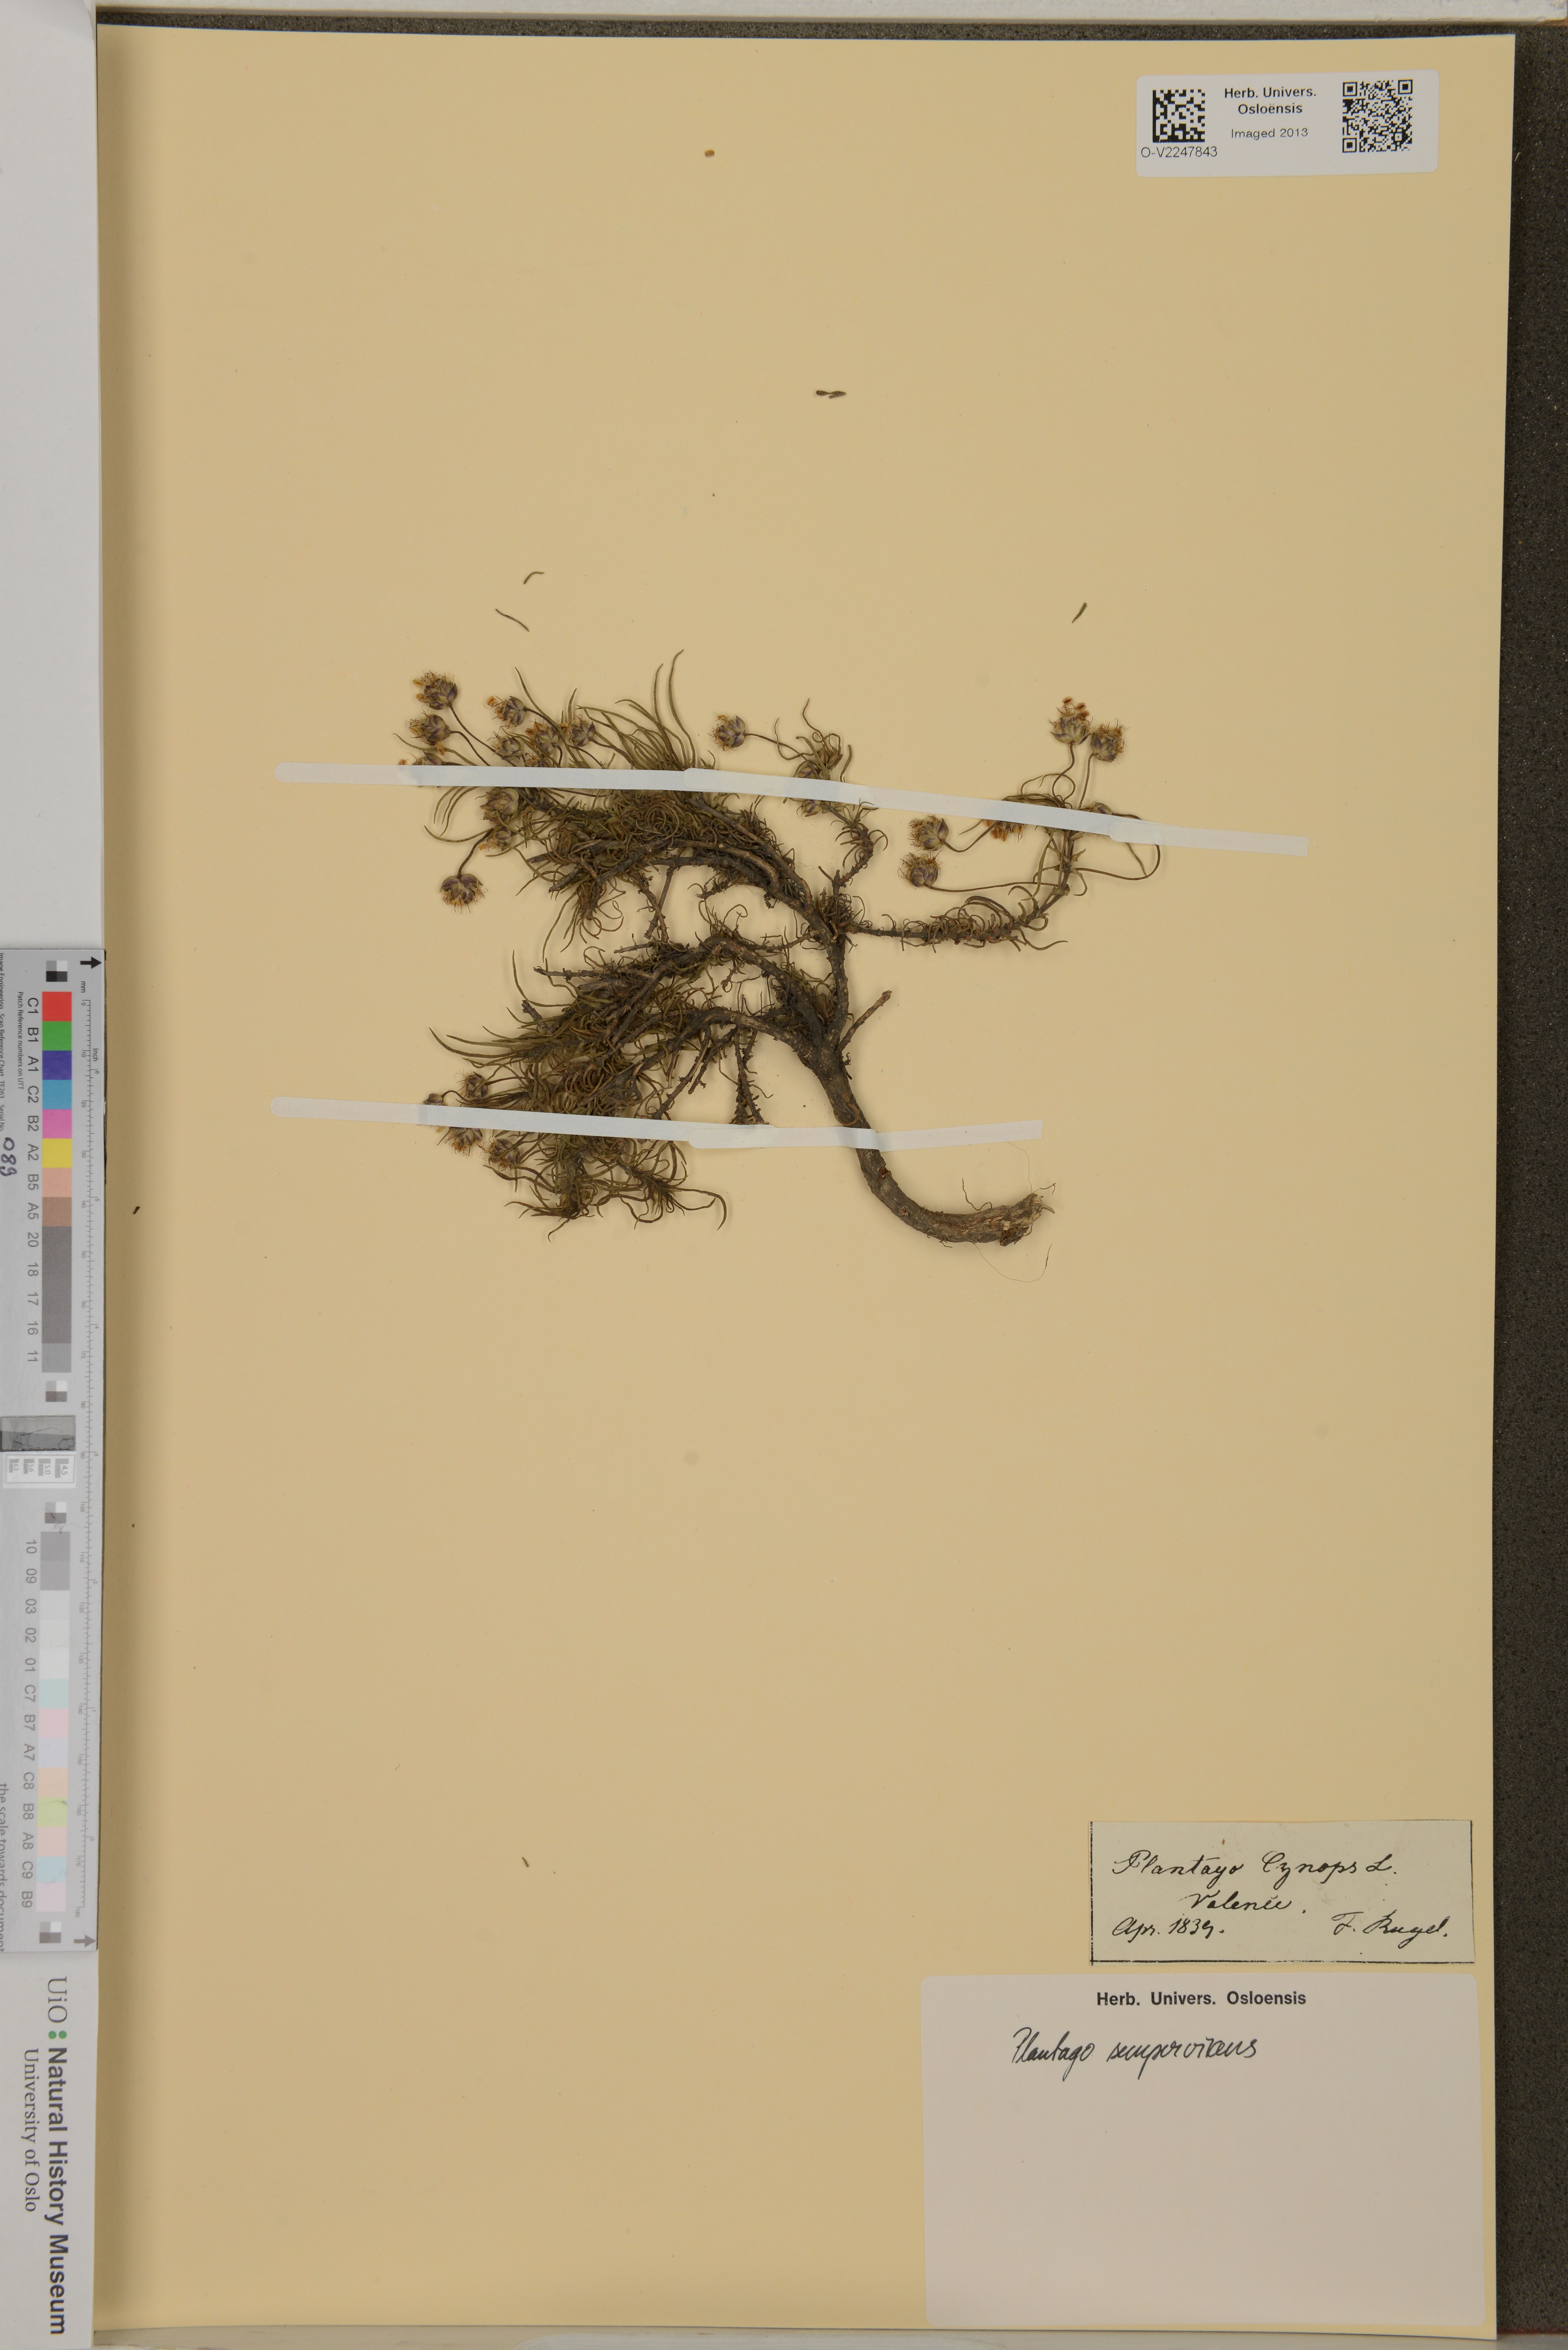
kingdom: Plantae
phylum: Tracheophyta
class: Magnoliopsida
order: Lamiales
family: Plantaginaceae
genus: Plantago
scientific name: Plantago
